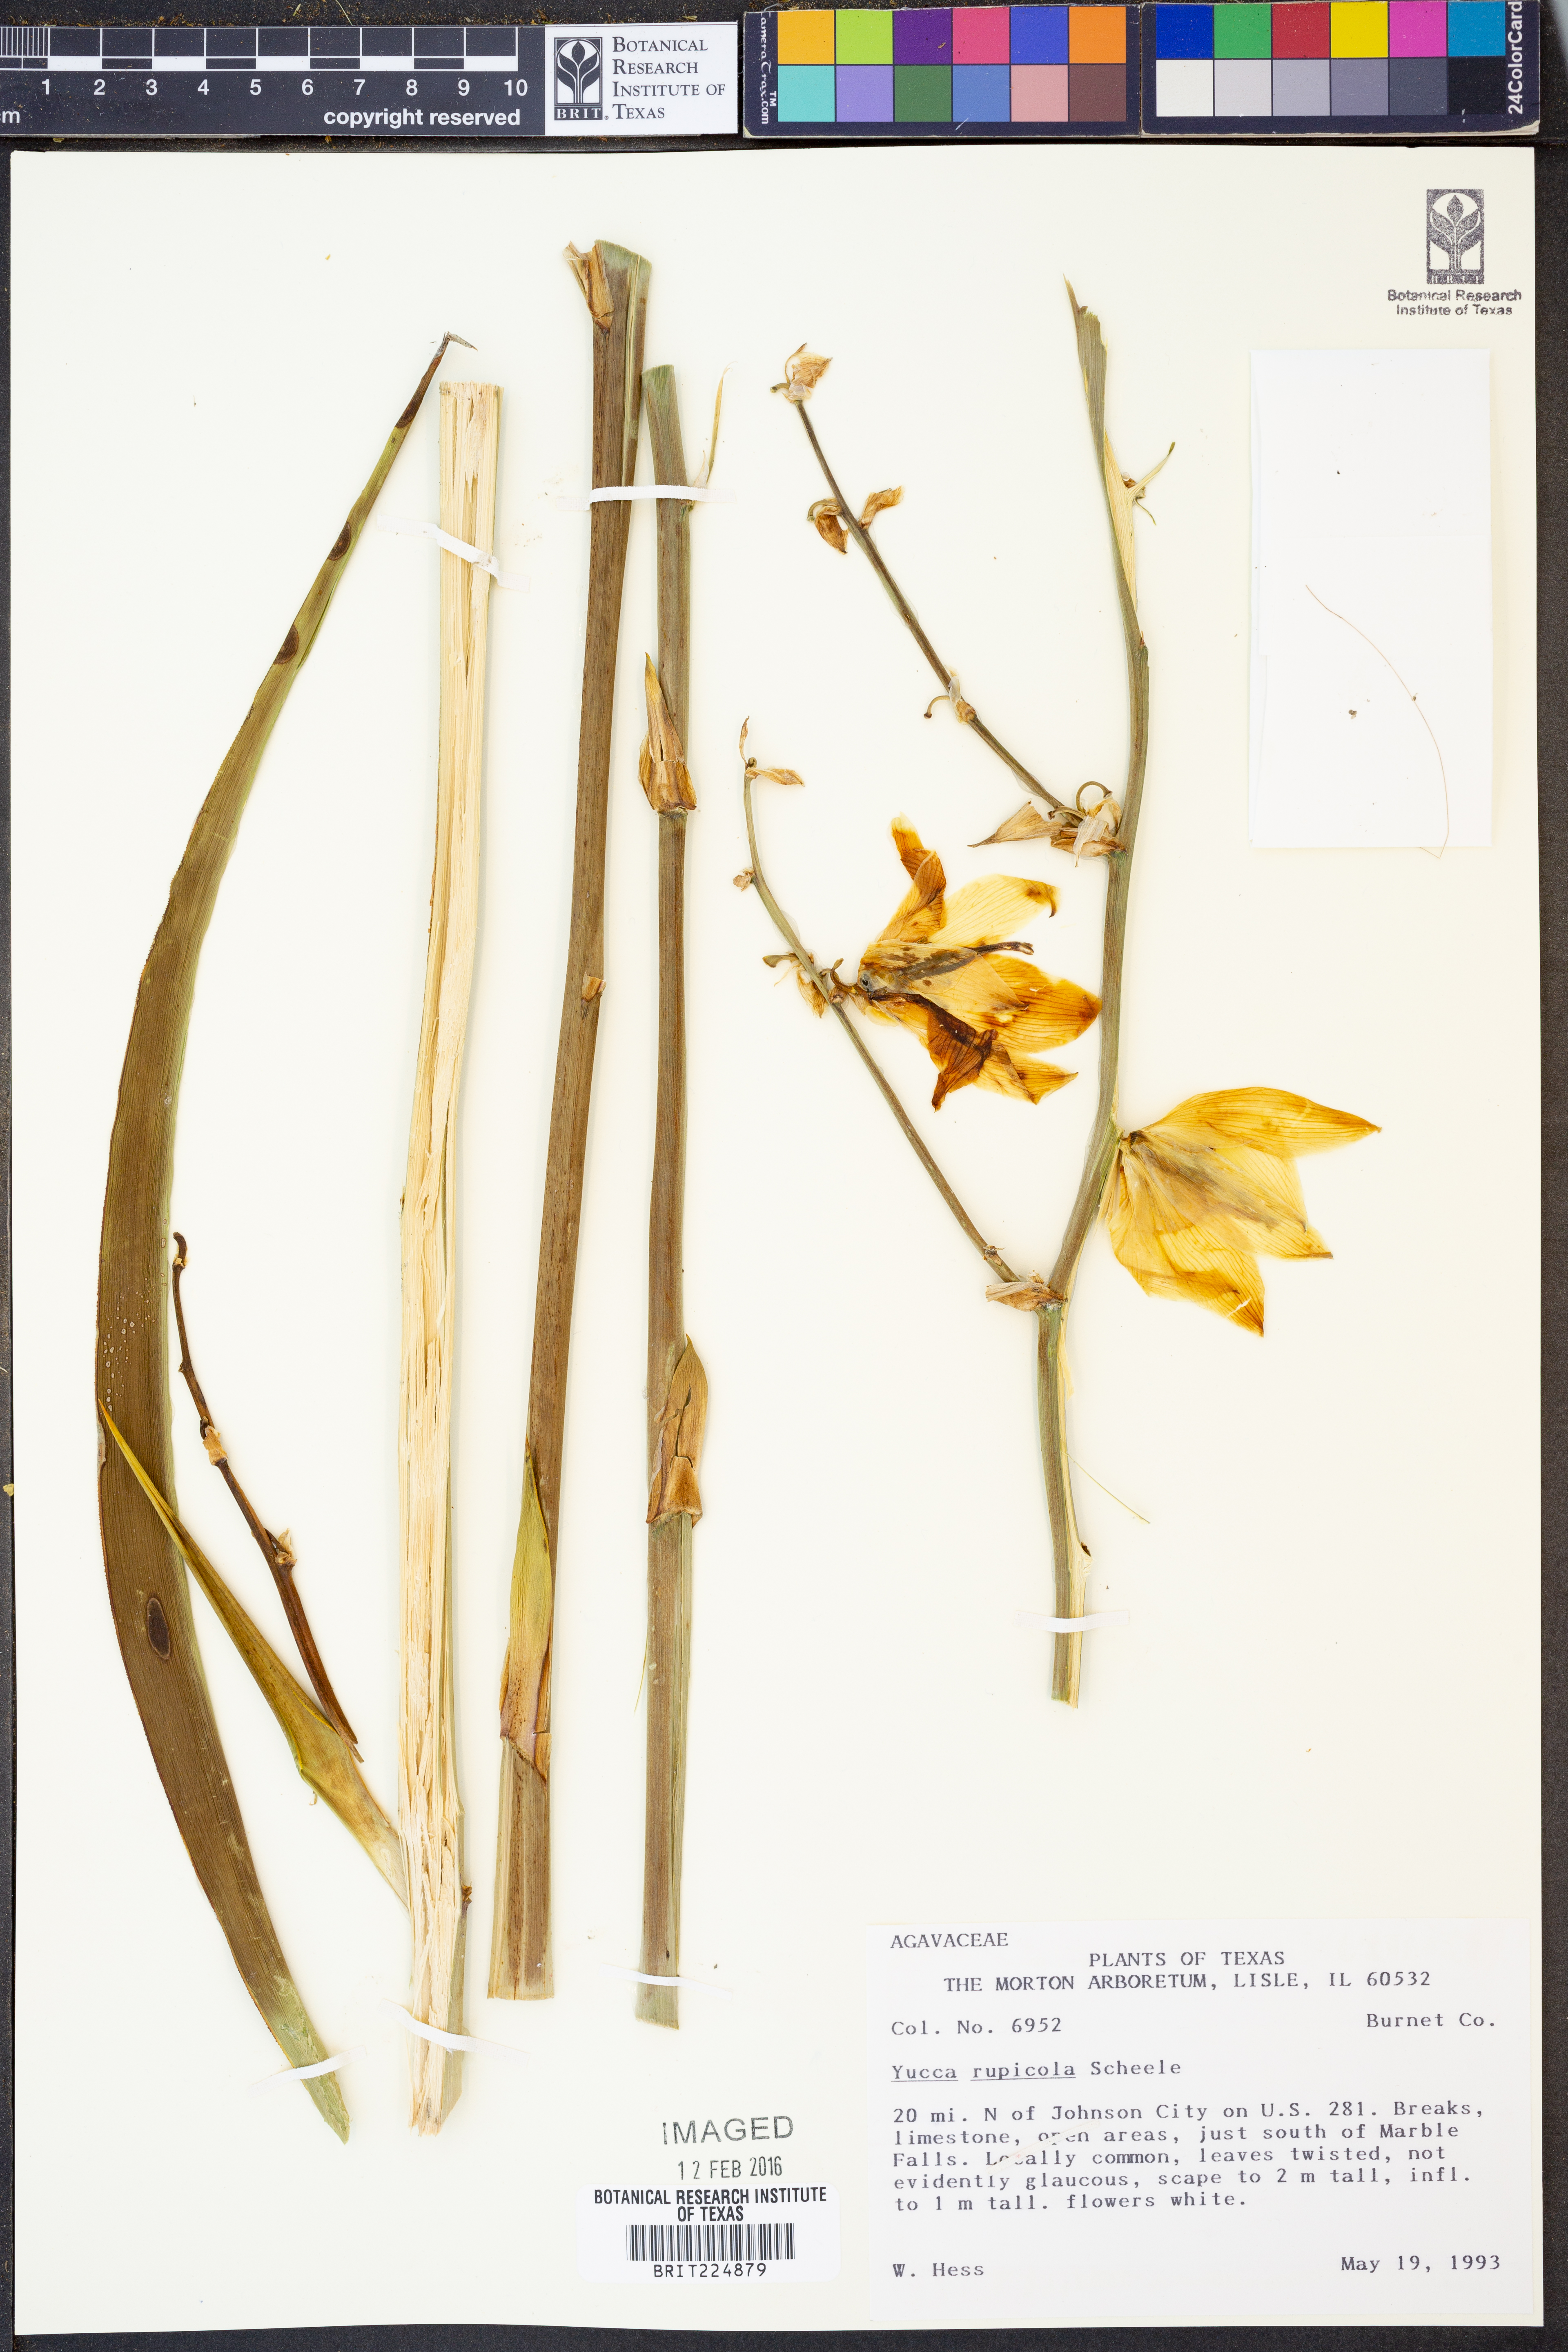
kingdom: Plantae
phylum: Tracheophyta
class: Liliopsida
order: Asparagales
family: Asparagaceae
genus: Yucca
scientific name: Yucca rupicola
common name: Twisted-leaf spanish-dagger
